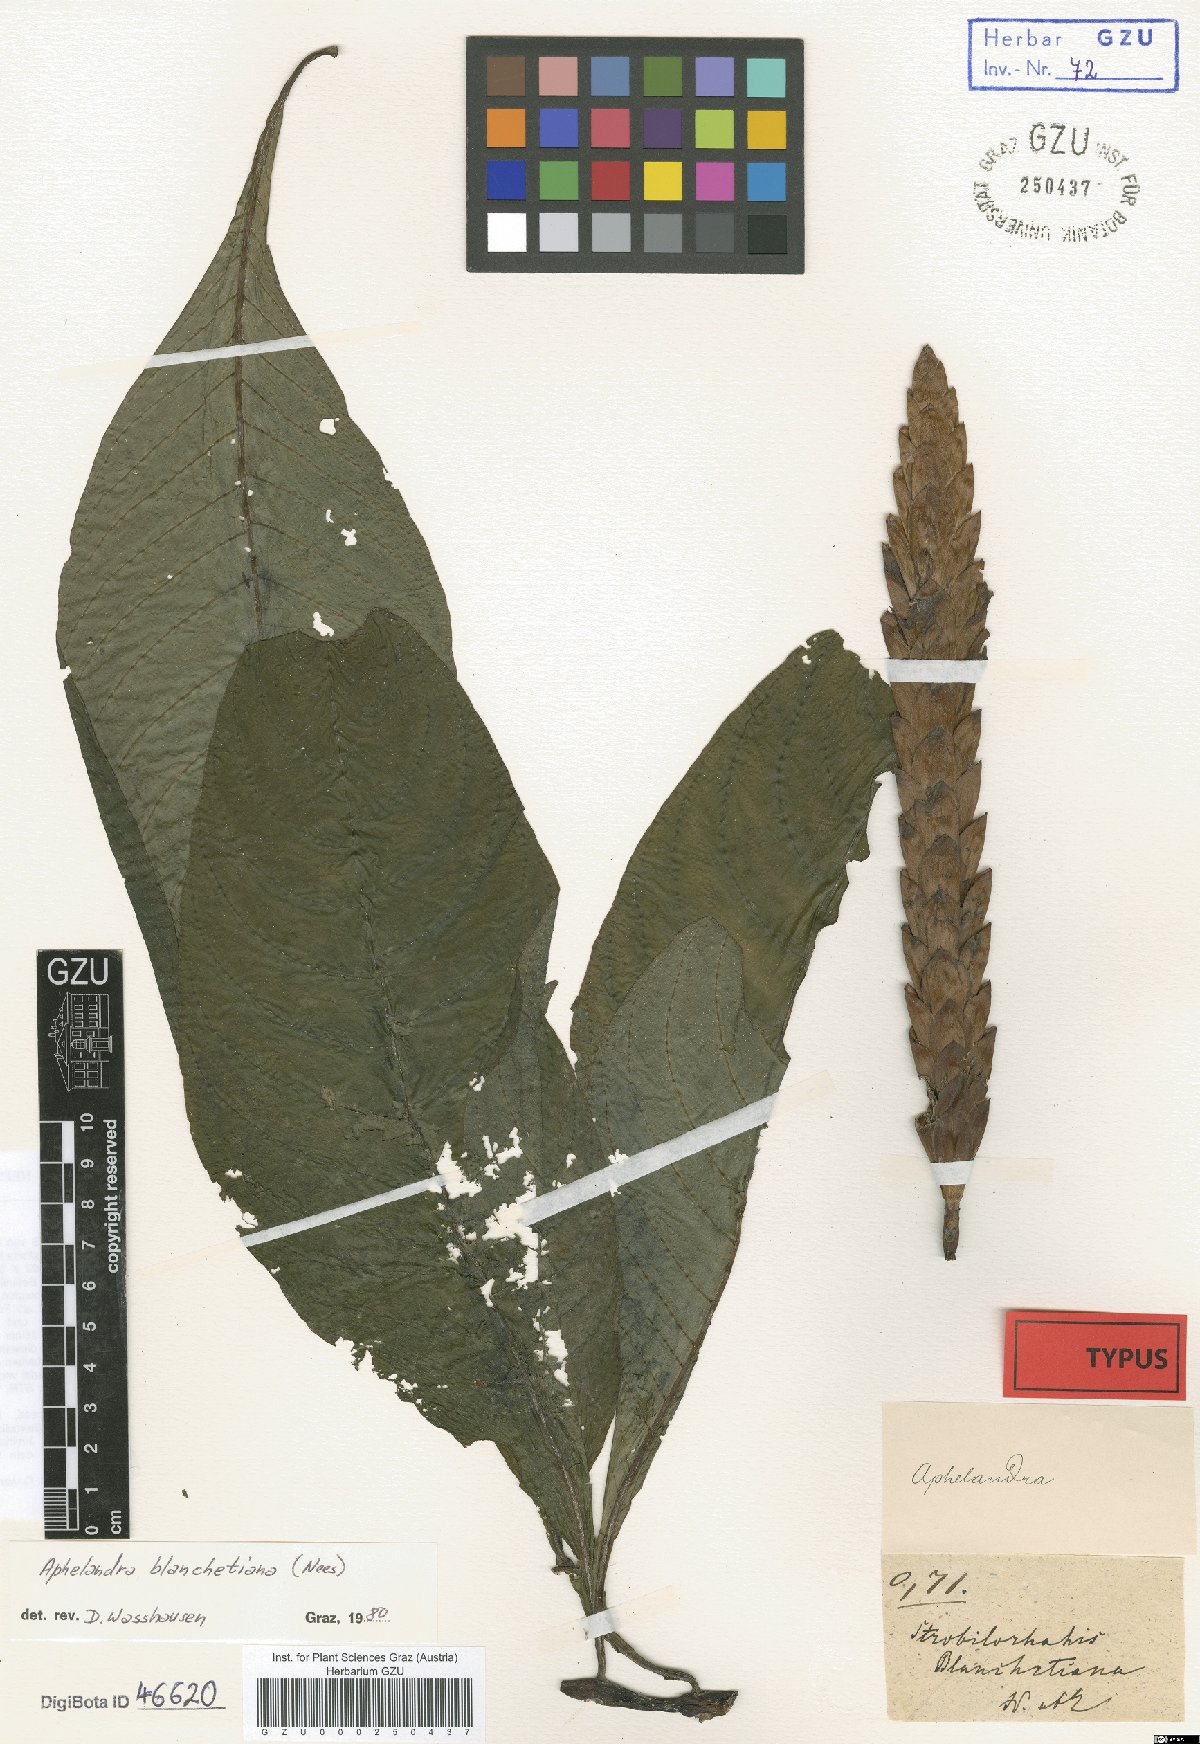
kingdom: Plantae
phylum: Tracheophyta
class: Magnoliopsida
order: Lamiales
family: Acanthaceae
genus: Aphelandra
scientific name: Aphelandra blanchetiana
